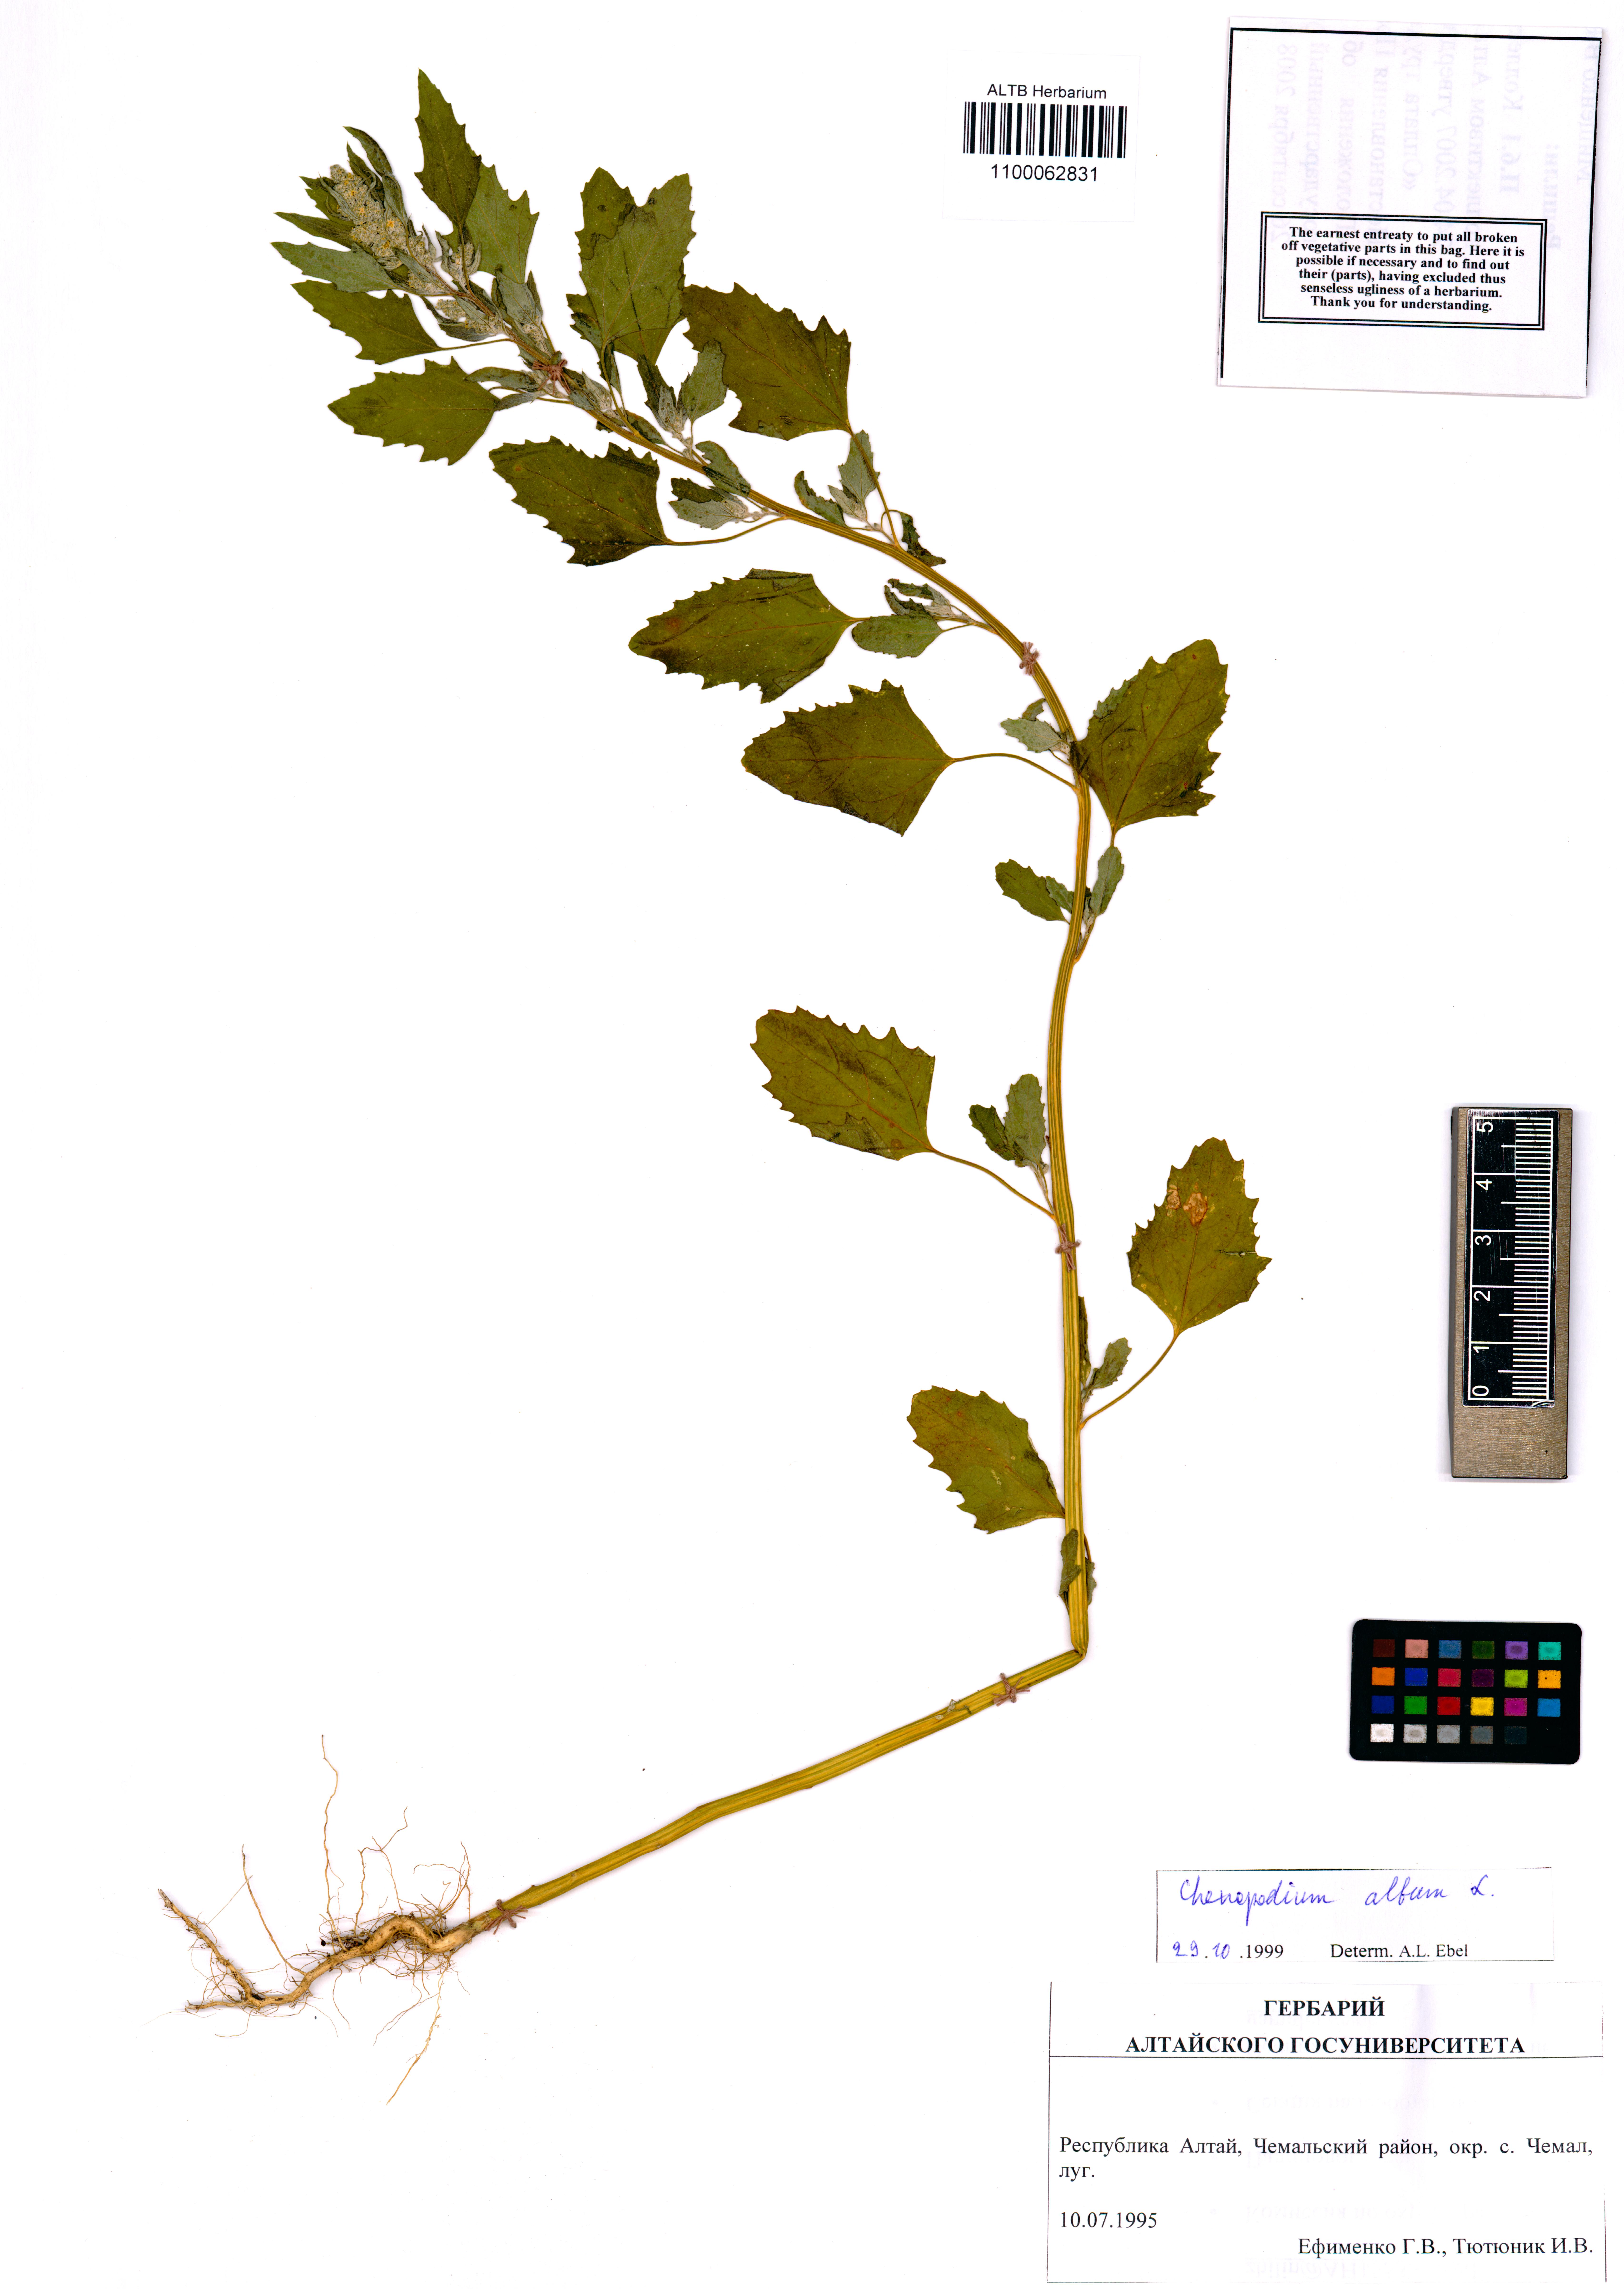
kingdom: Plantae
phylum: Tracheophyta
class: Magnoliopsida
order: Caryophyllales
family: Amaranthaceae
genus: Chenopodium
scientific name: Chenopodium album
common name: Fat-hen
